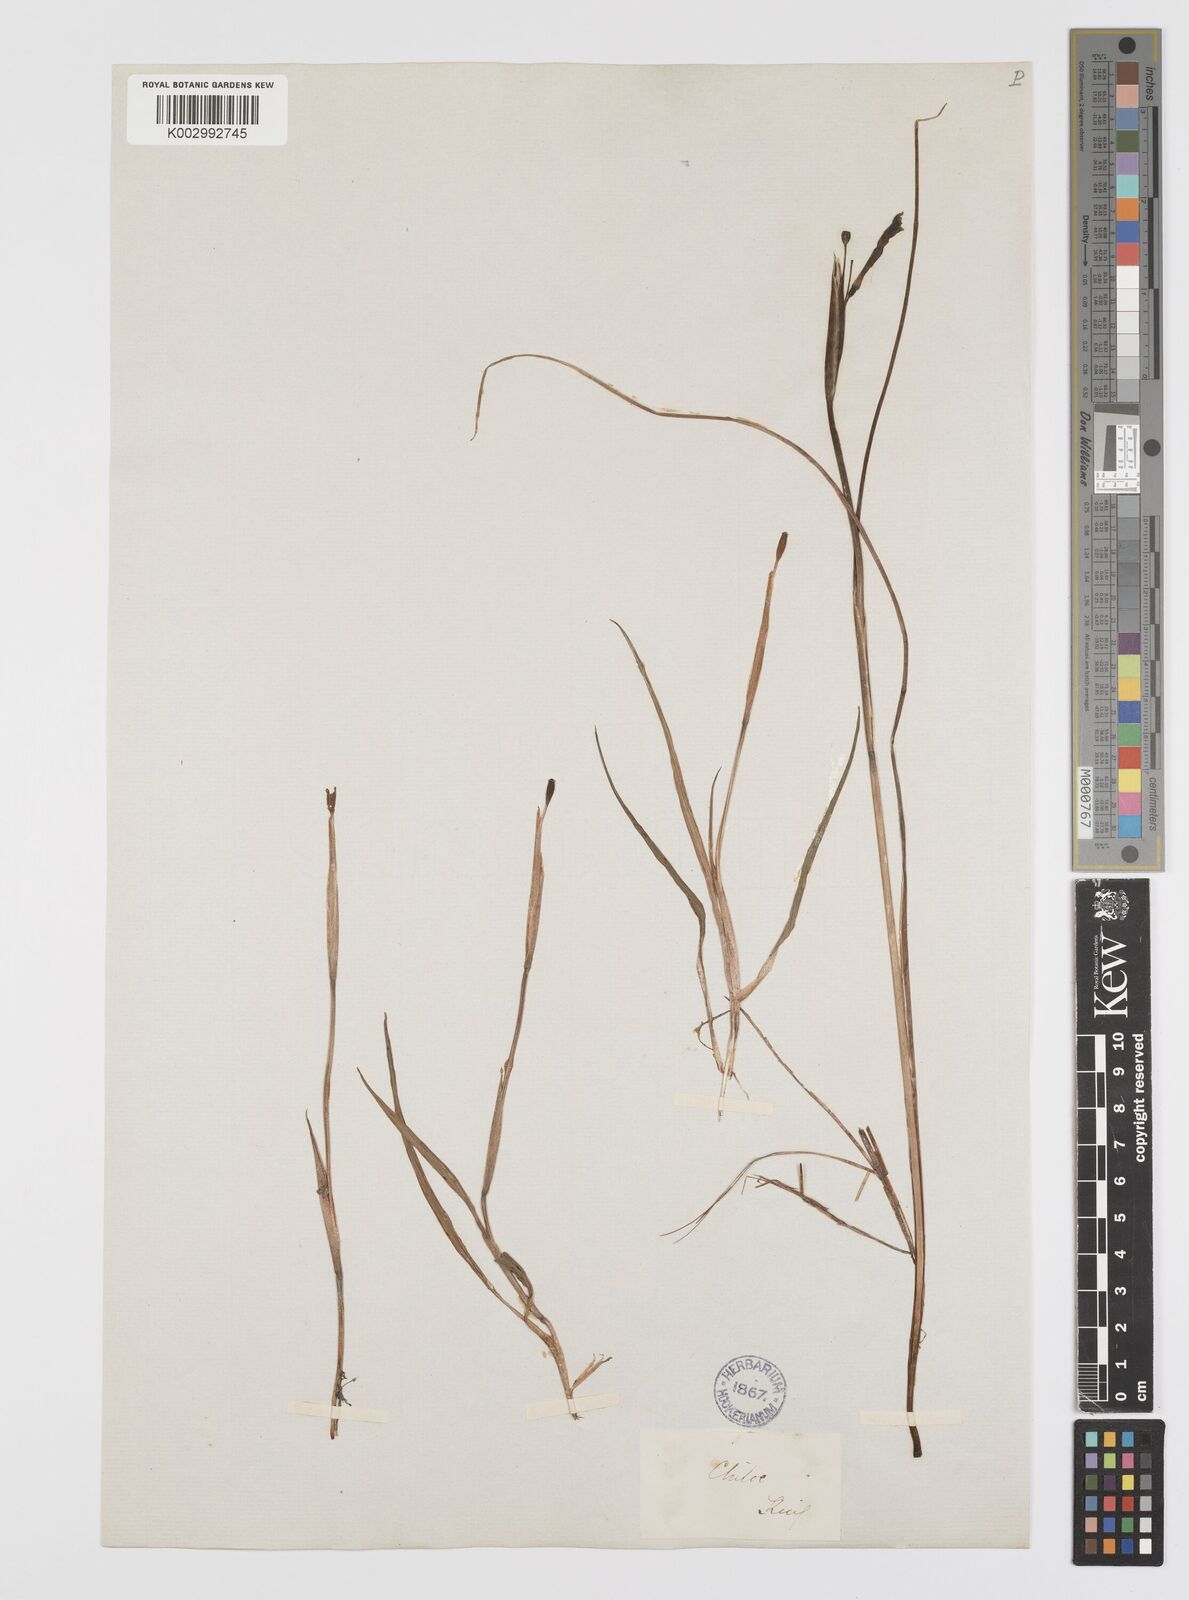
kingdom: Plantae
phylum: Tracheophyta
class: Liliopsida
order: Asparagales
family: Iridaceae
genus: Sisyrinchium
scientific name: Sisyrinchium chilense
